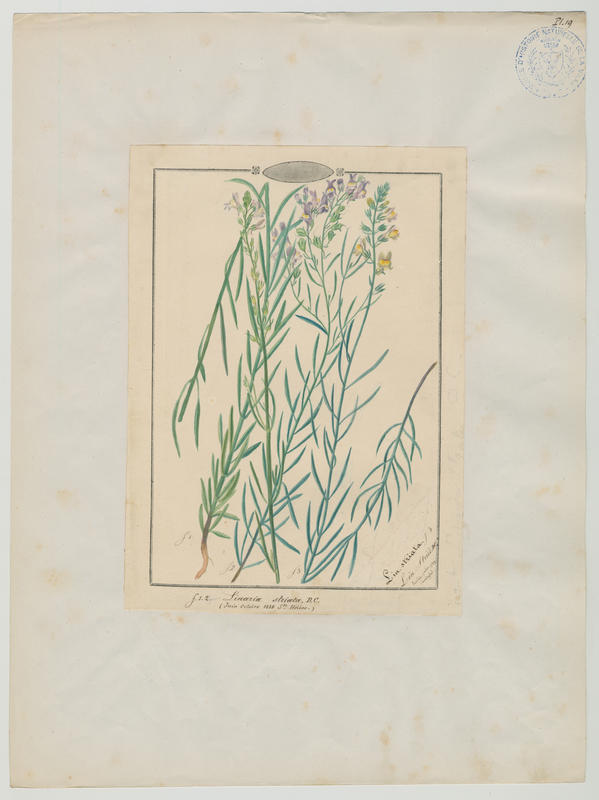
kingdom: Plantae
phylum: Tracheophyta
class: Magnoliopsida
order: Lamiales
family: Plantaginaceae
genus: Linaria
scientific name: Linaria repens
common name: Pale toadflax
